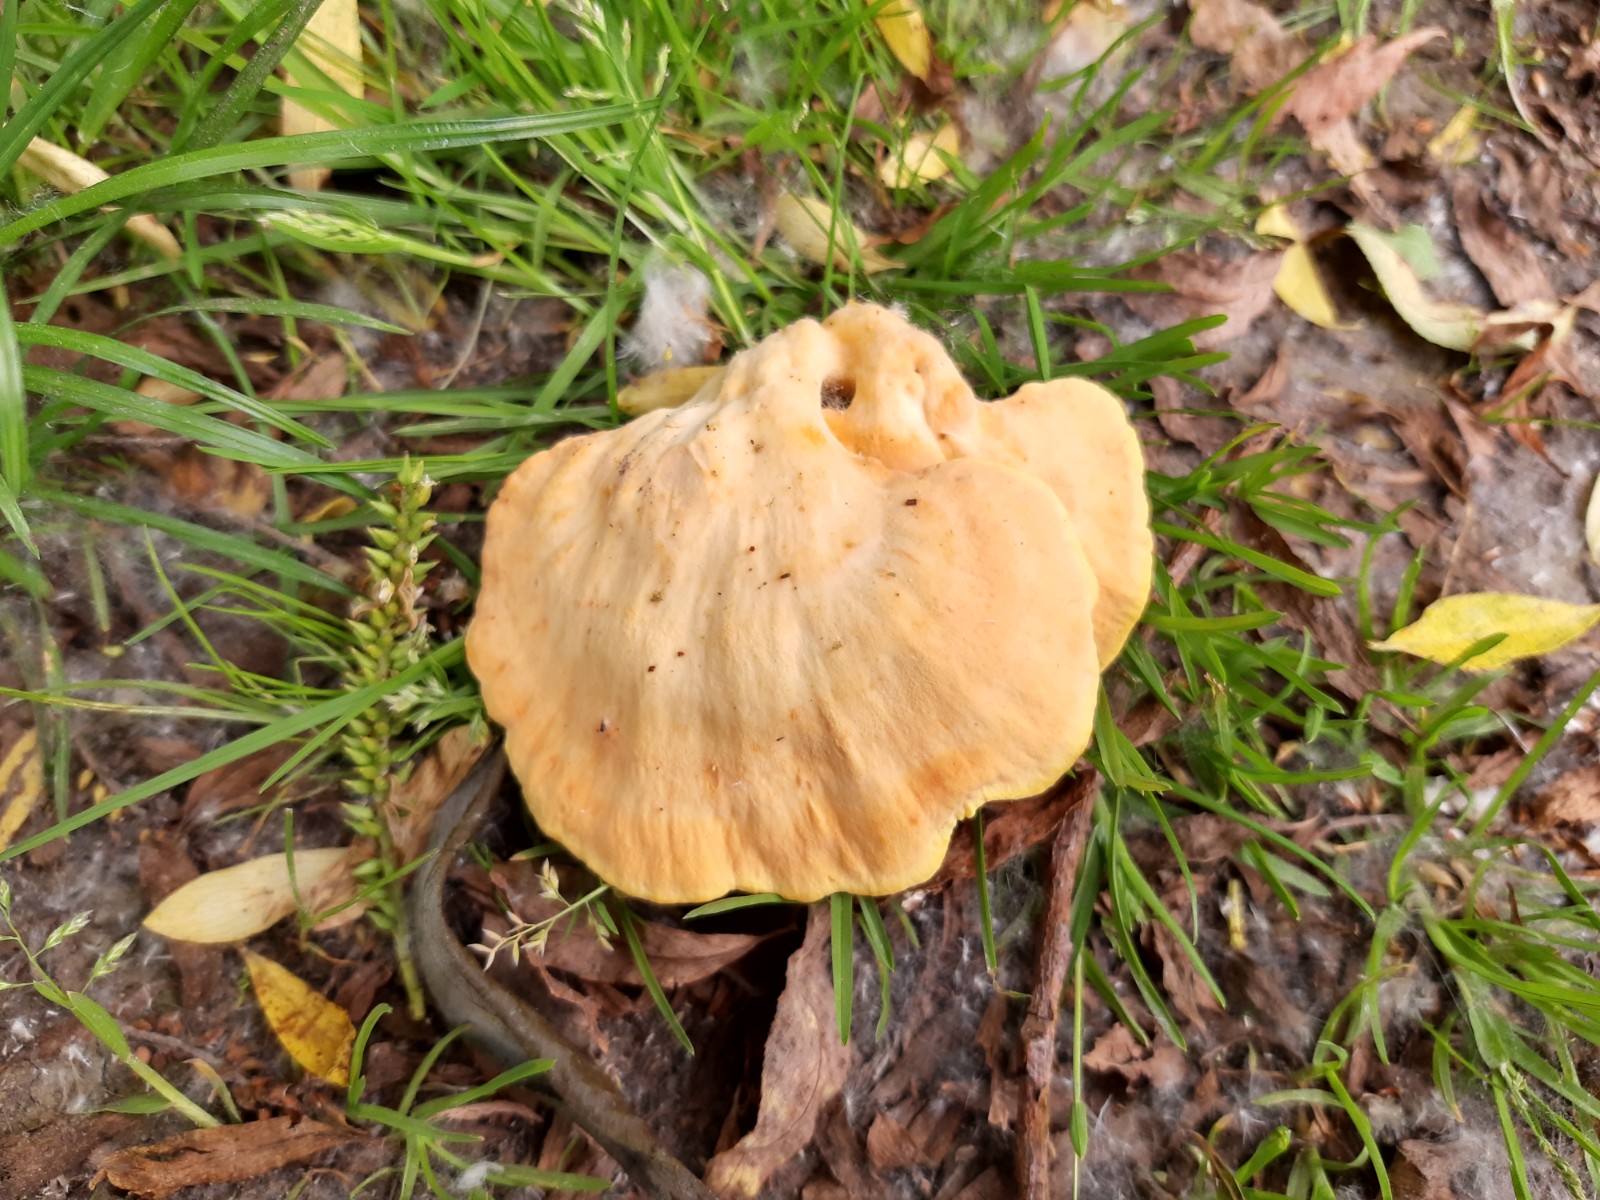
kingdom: Fungi
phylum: Basidiomycota
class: Agaricomycetes
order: Polyporales
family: Laetiporaceae
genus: Laetiporus
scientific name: Laetiporus sulphureus
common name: svovlporesvamp
